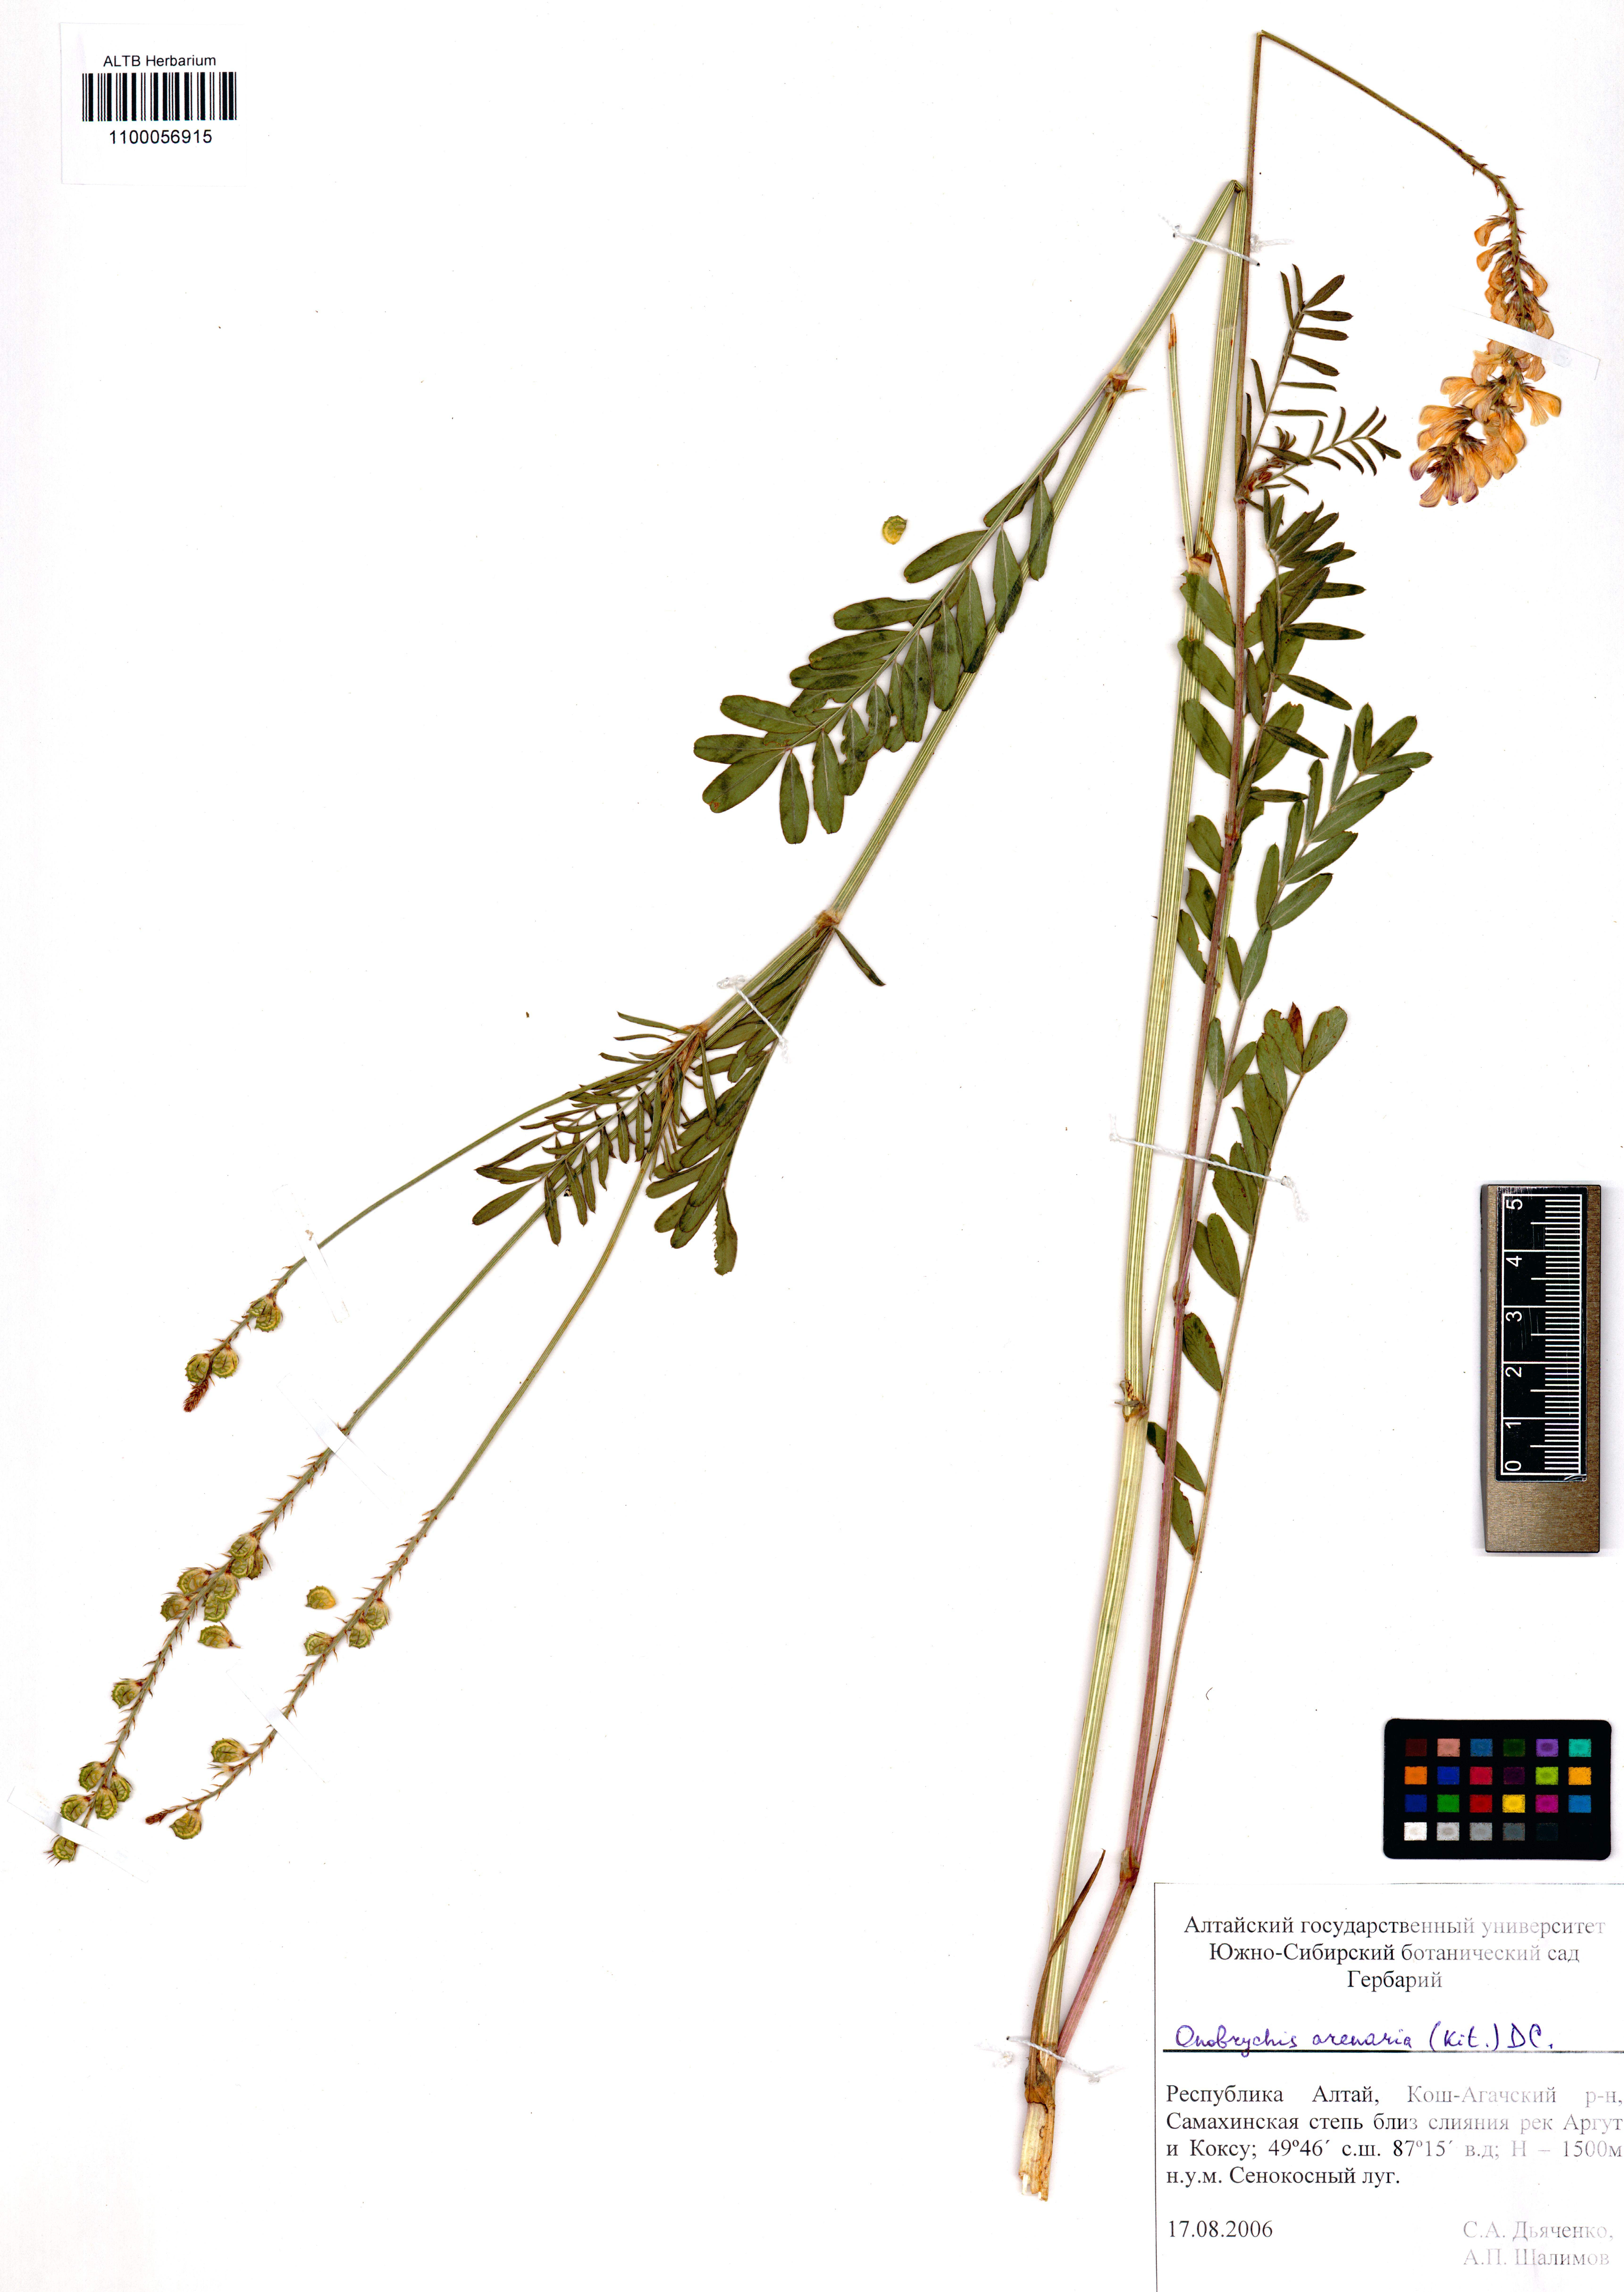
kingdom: Plantae
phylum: Tracheophyta
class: Magnoliopsida
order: Fabales
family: Fabaceae
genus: Onobrychis
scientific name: Onobrychis arenaria
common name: Sand esparcet
